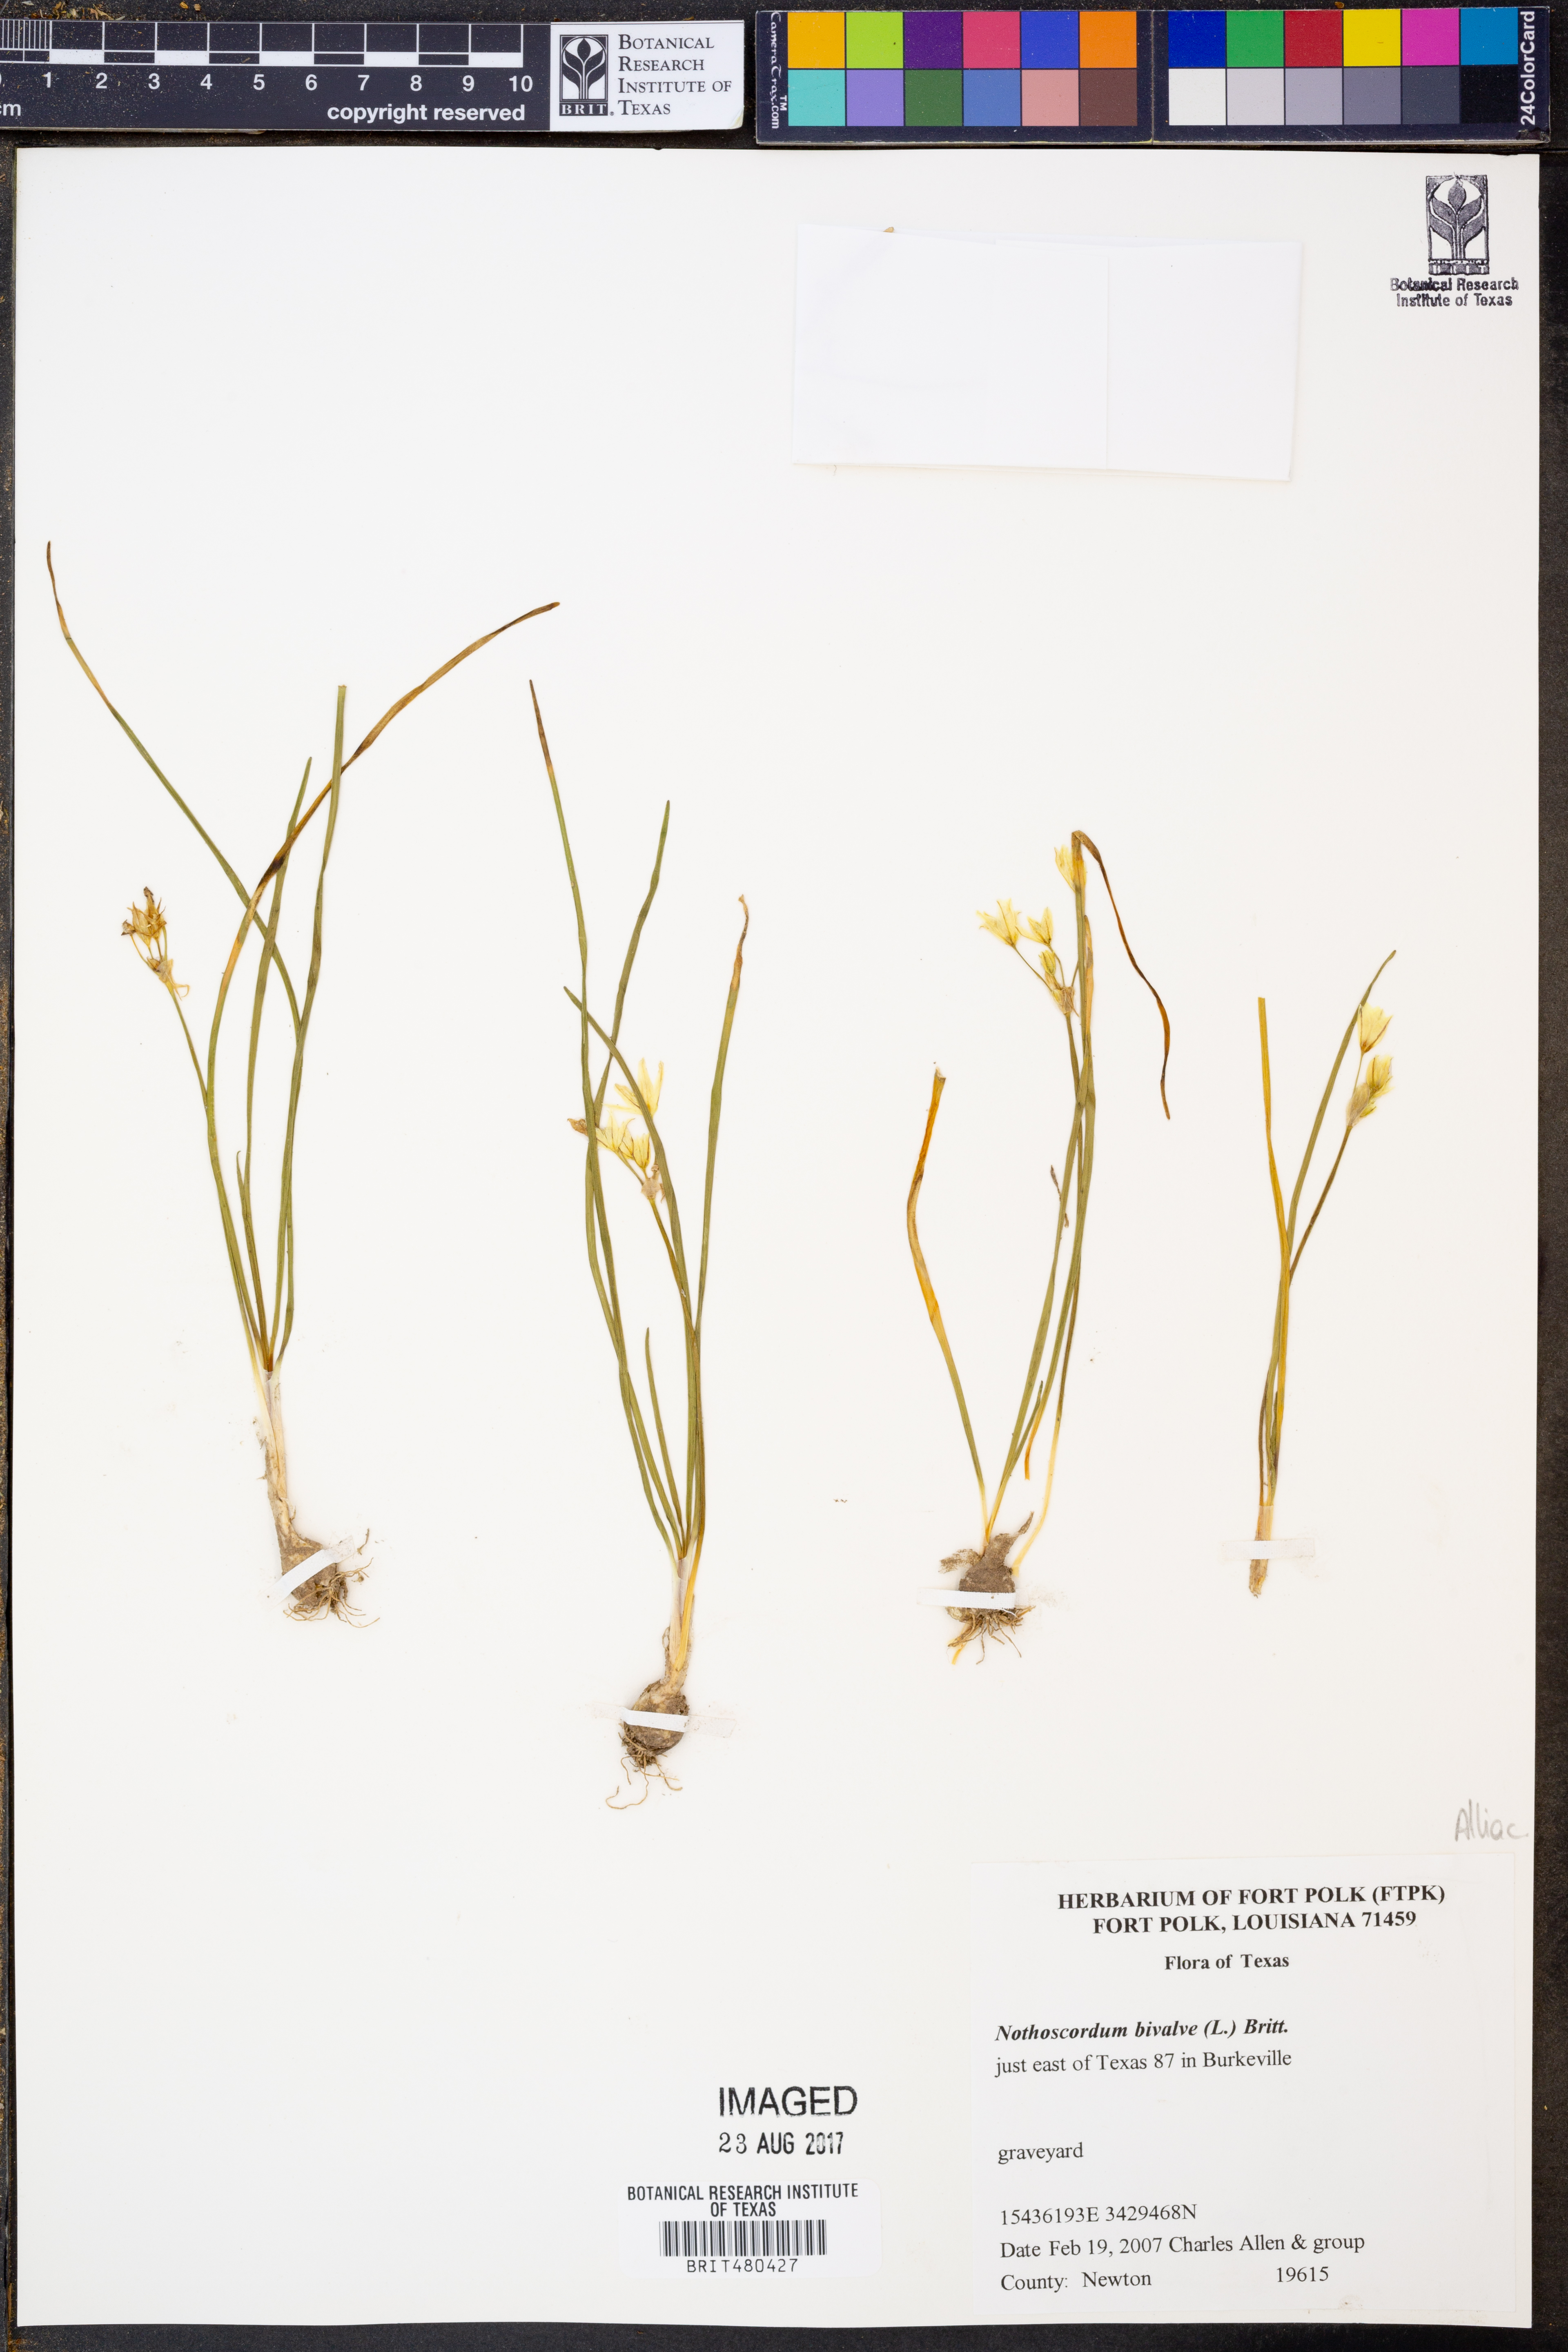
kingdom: Plantae
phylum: Tracheophyta
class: Liliopsida
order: Asparagales
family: Amaryllidaceae
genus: Nothoscordum
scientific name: Nothoscordum bivalve
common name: Crow-poison
